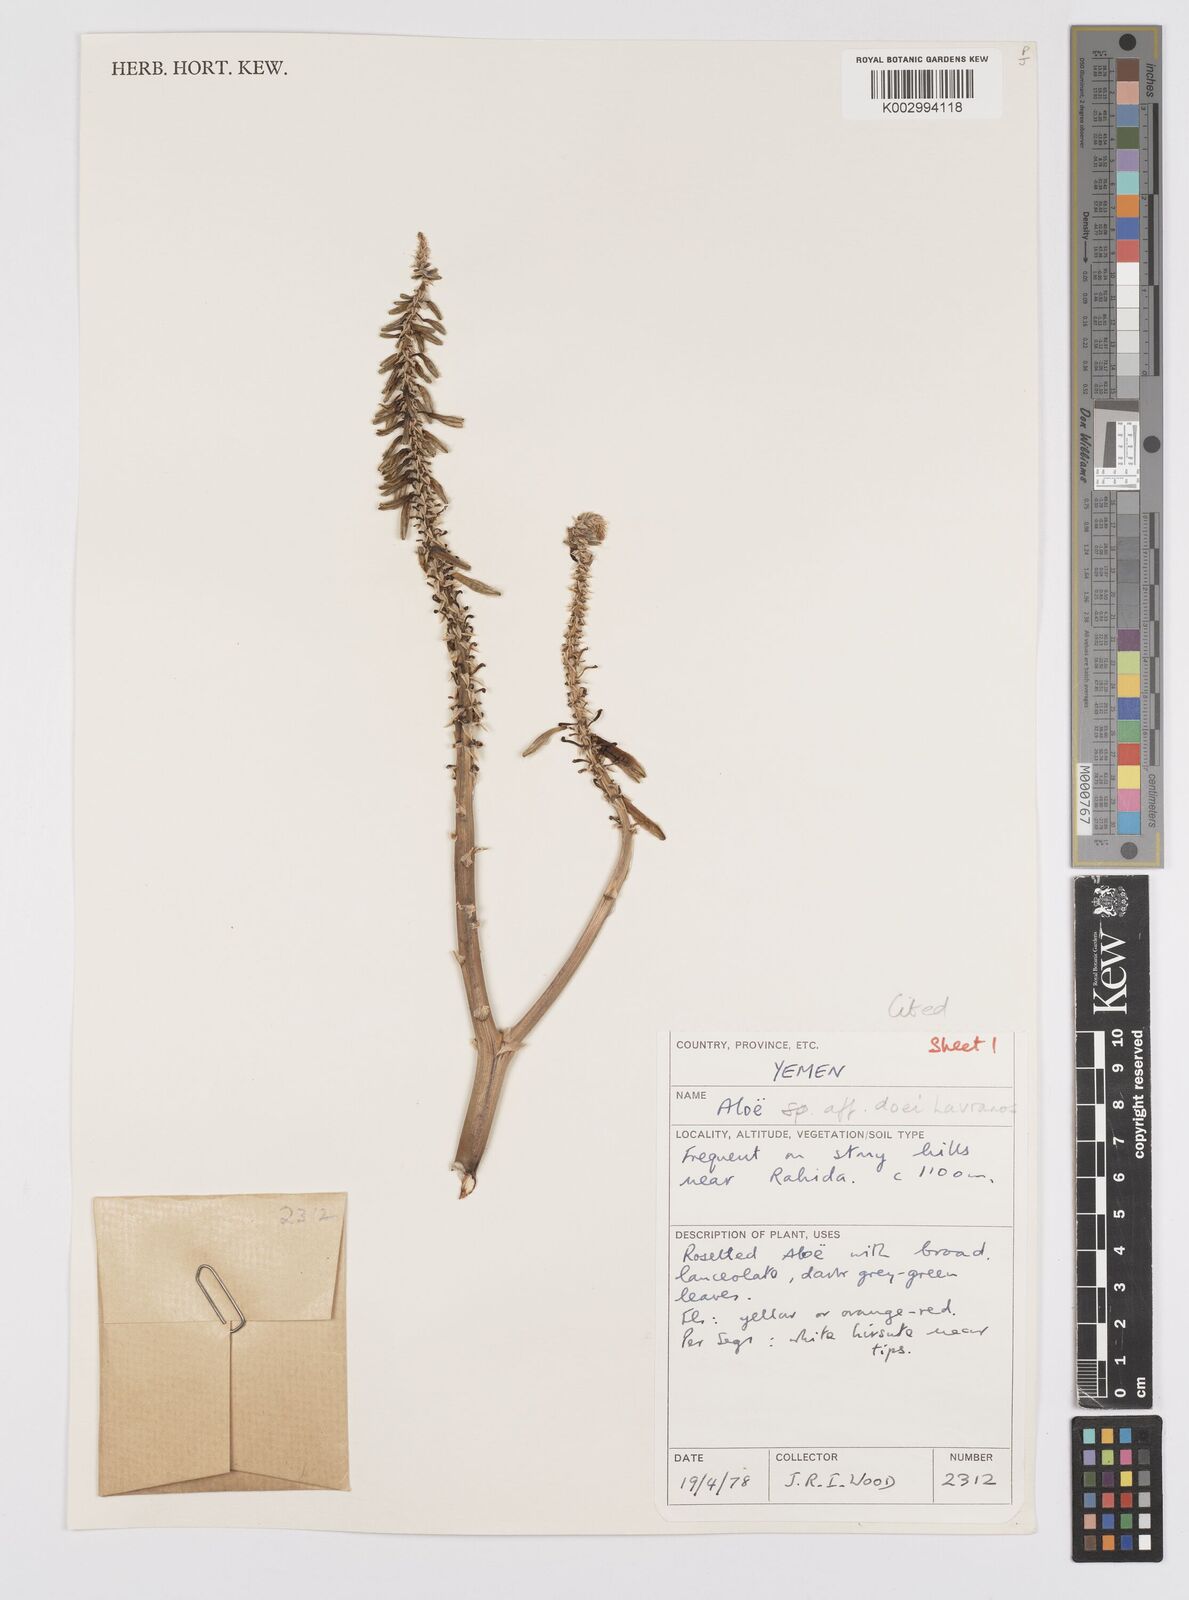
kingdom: Plantae
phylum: Tracheophyta
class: Liliopsida
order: Asparagales
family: Asphodelaceae
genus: Aloe
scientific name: Aloe lavranosii
